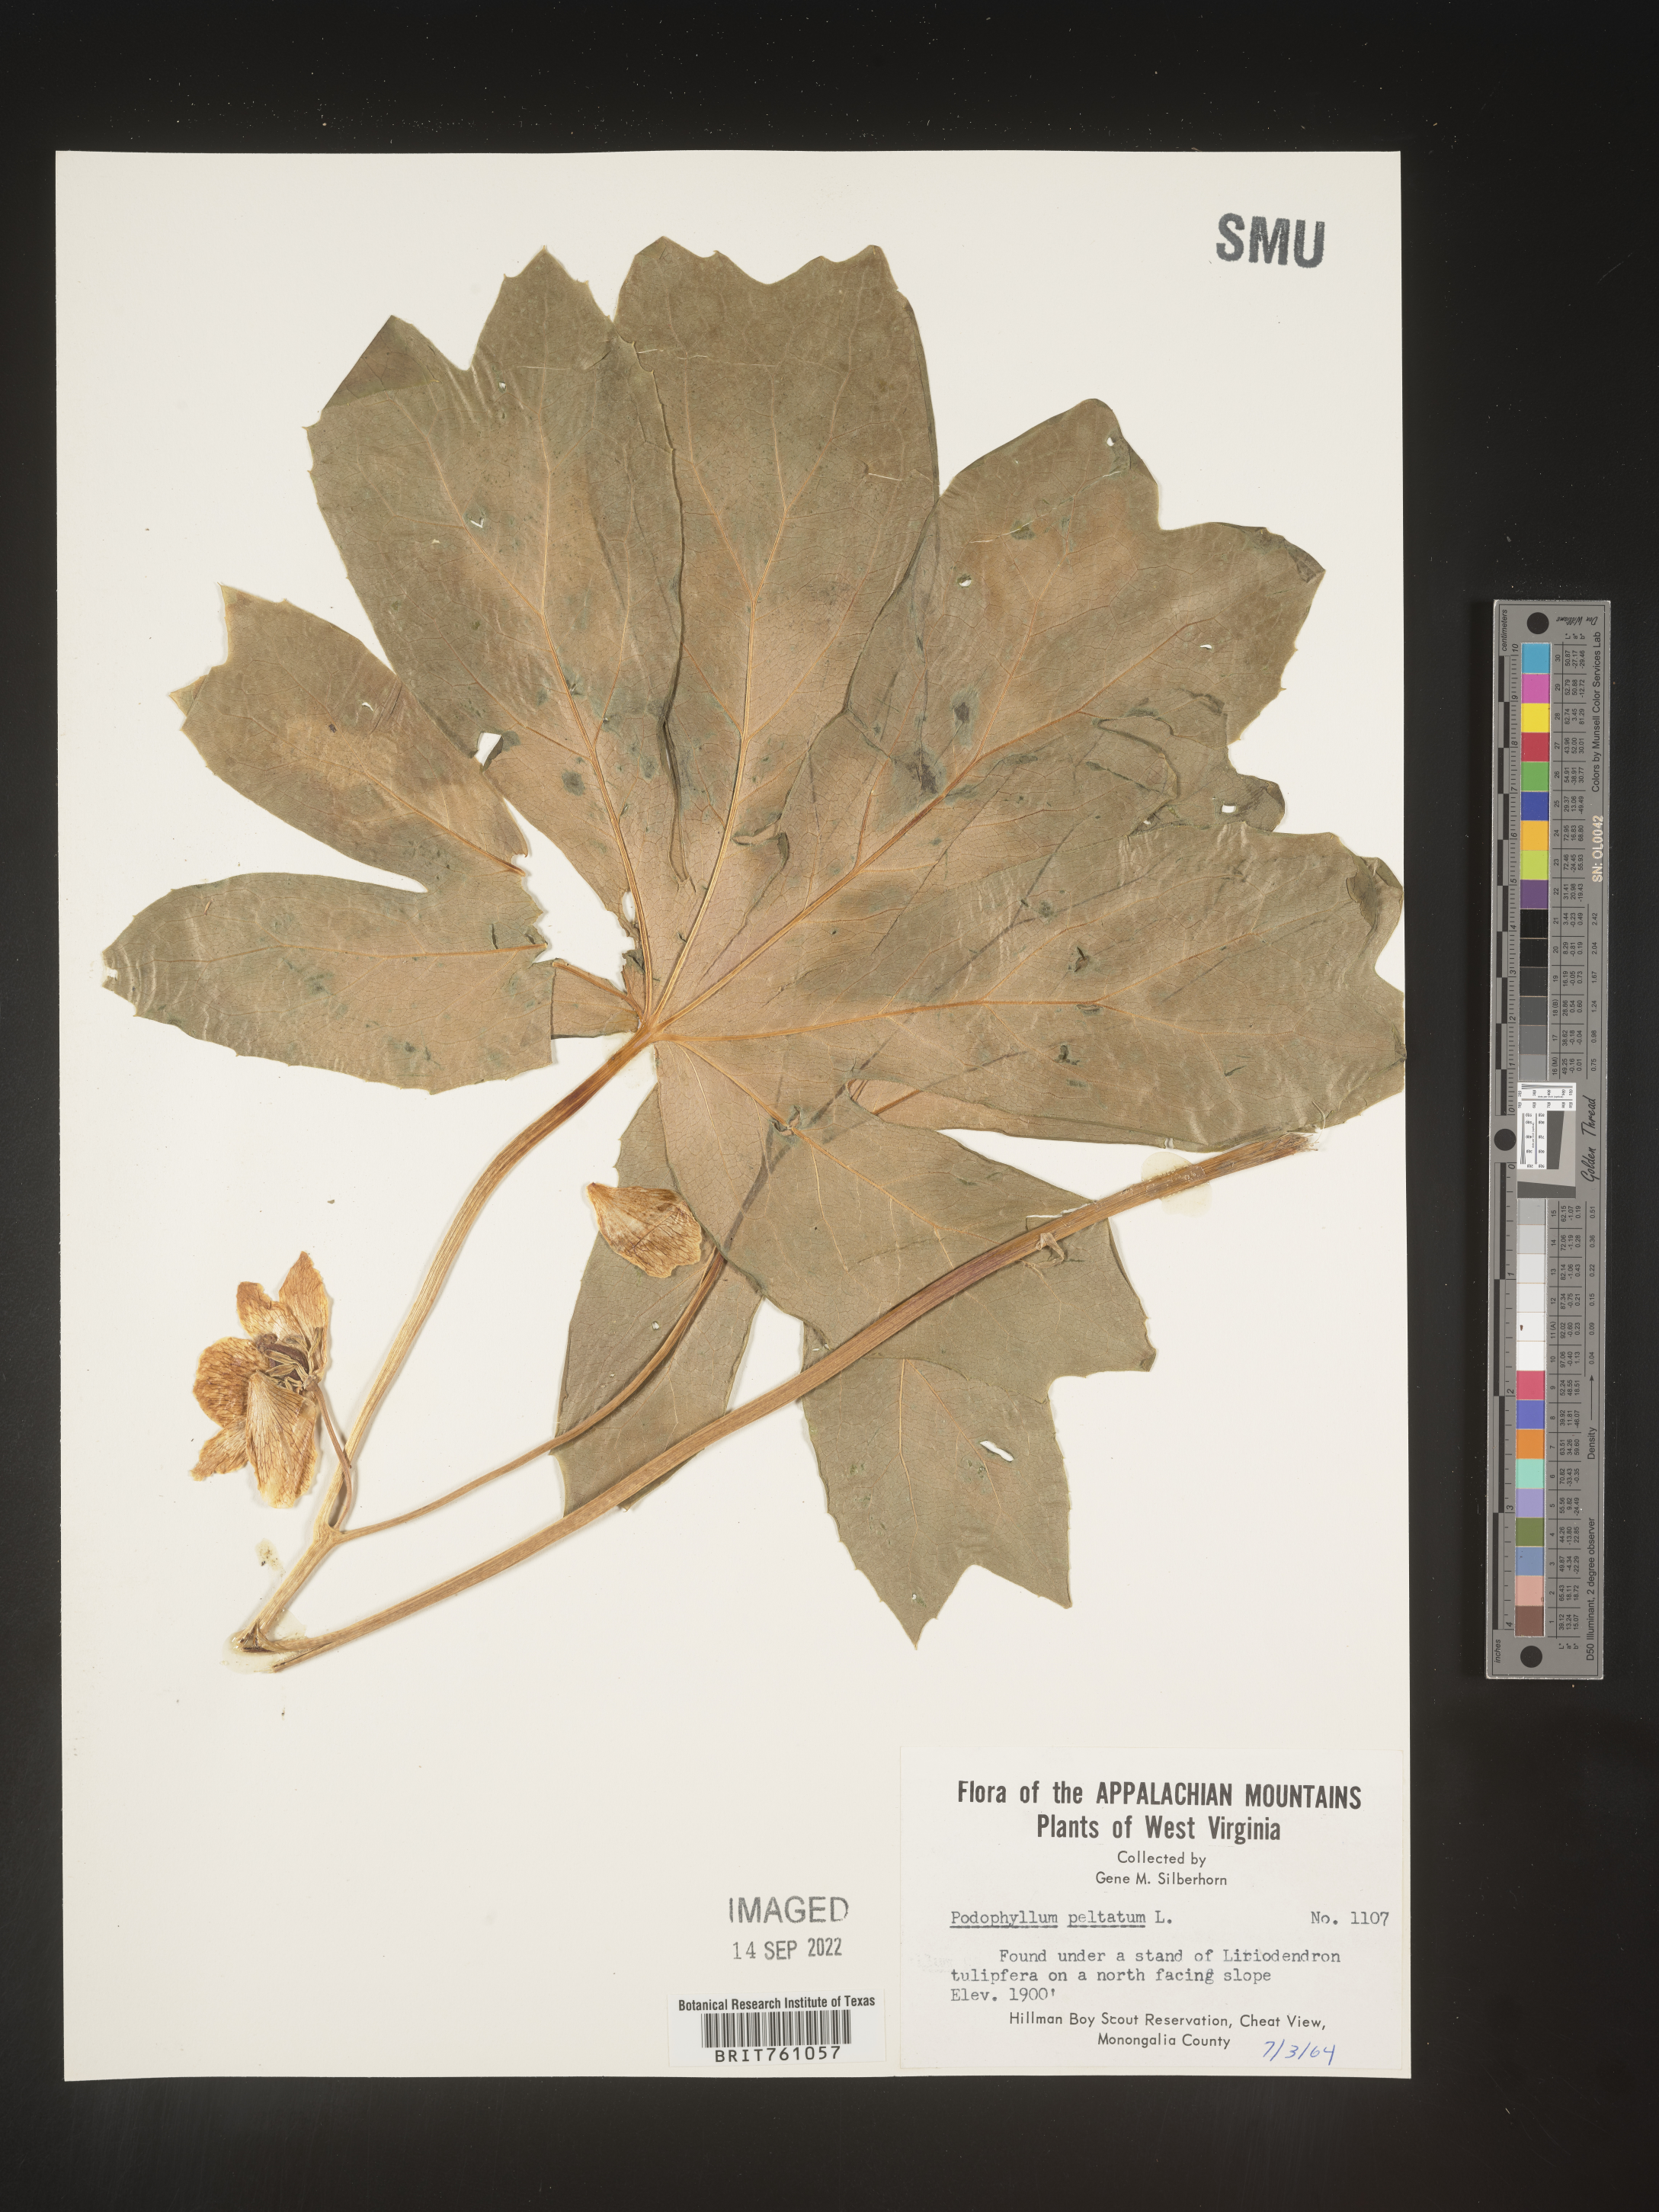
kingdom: Plantae
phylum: Tracheophyta
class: Magnoliopsida
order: Ranunculales
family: Berberidaceae
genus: Podophyllum
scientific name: Podophyllum peltatum
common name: Wild mandrake
